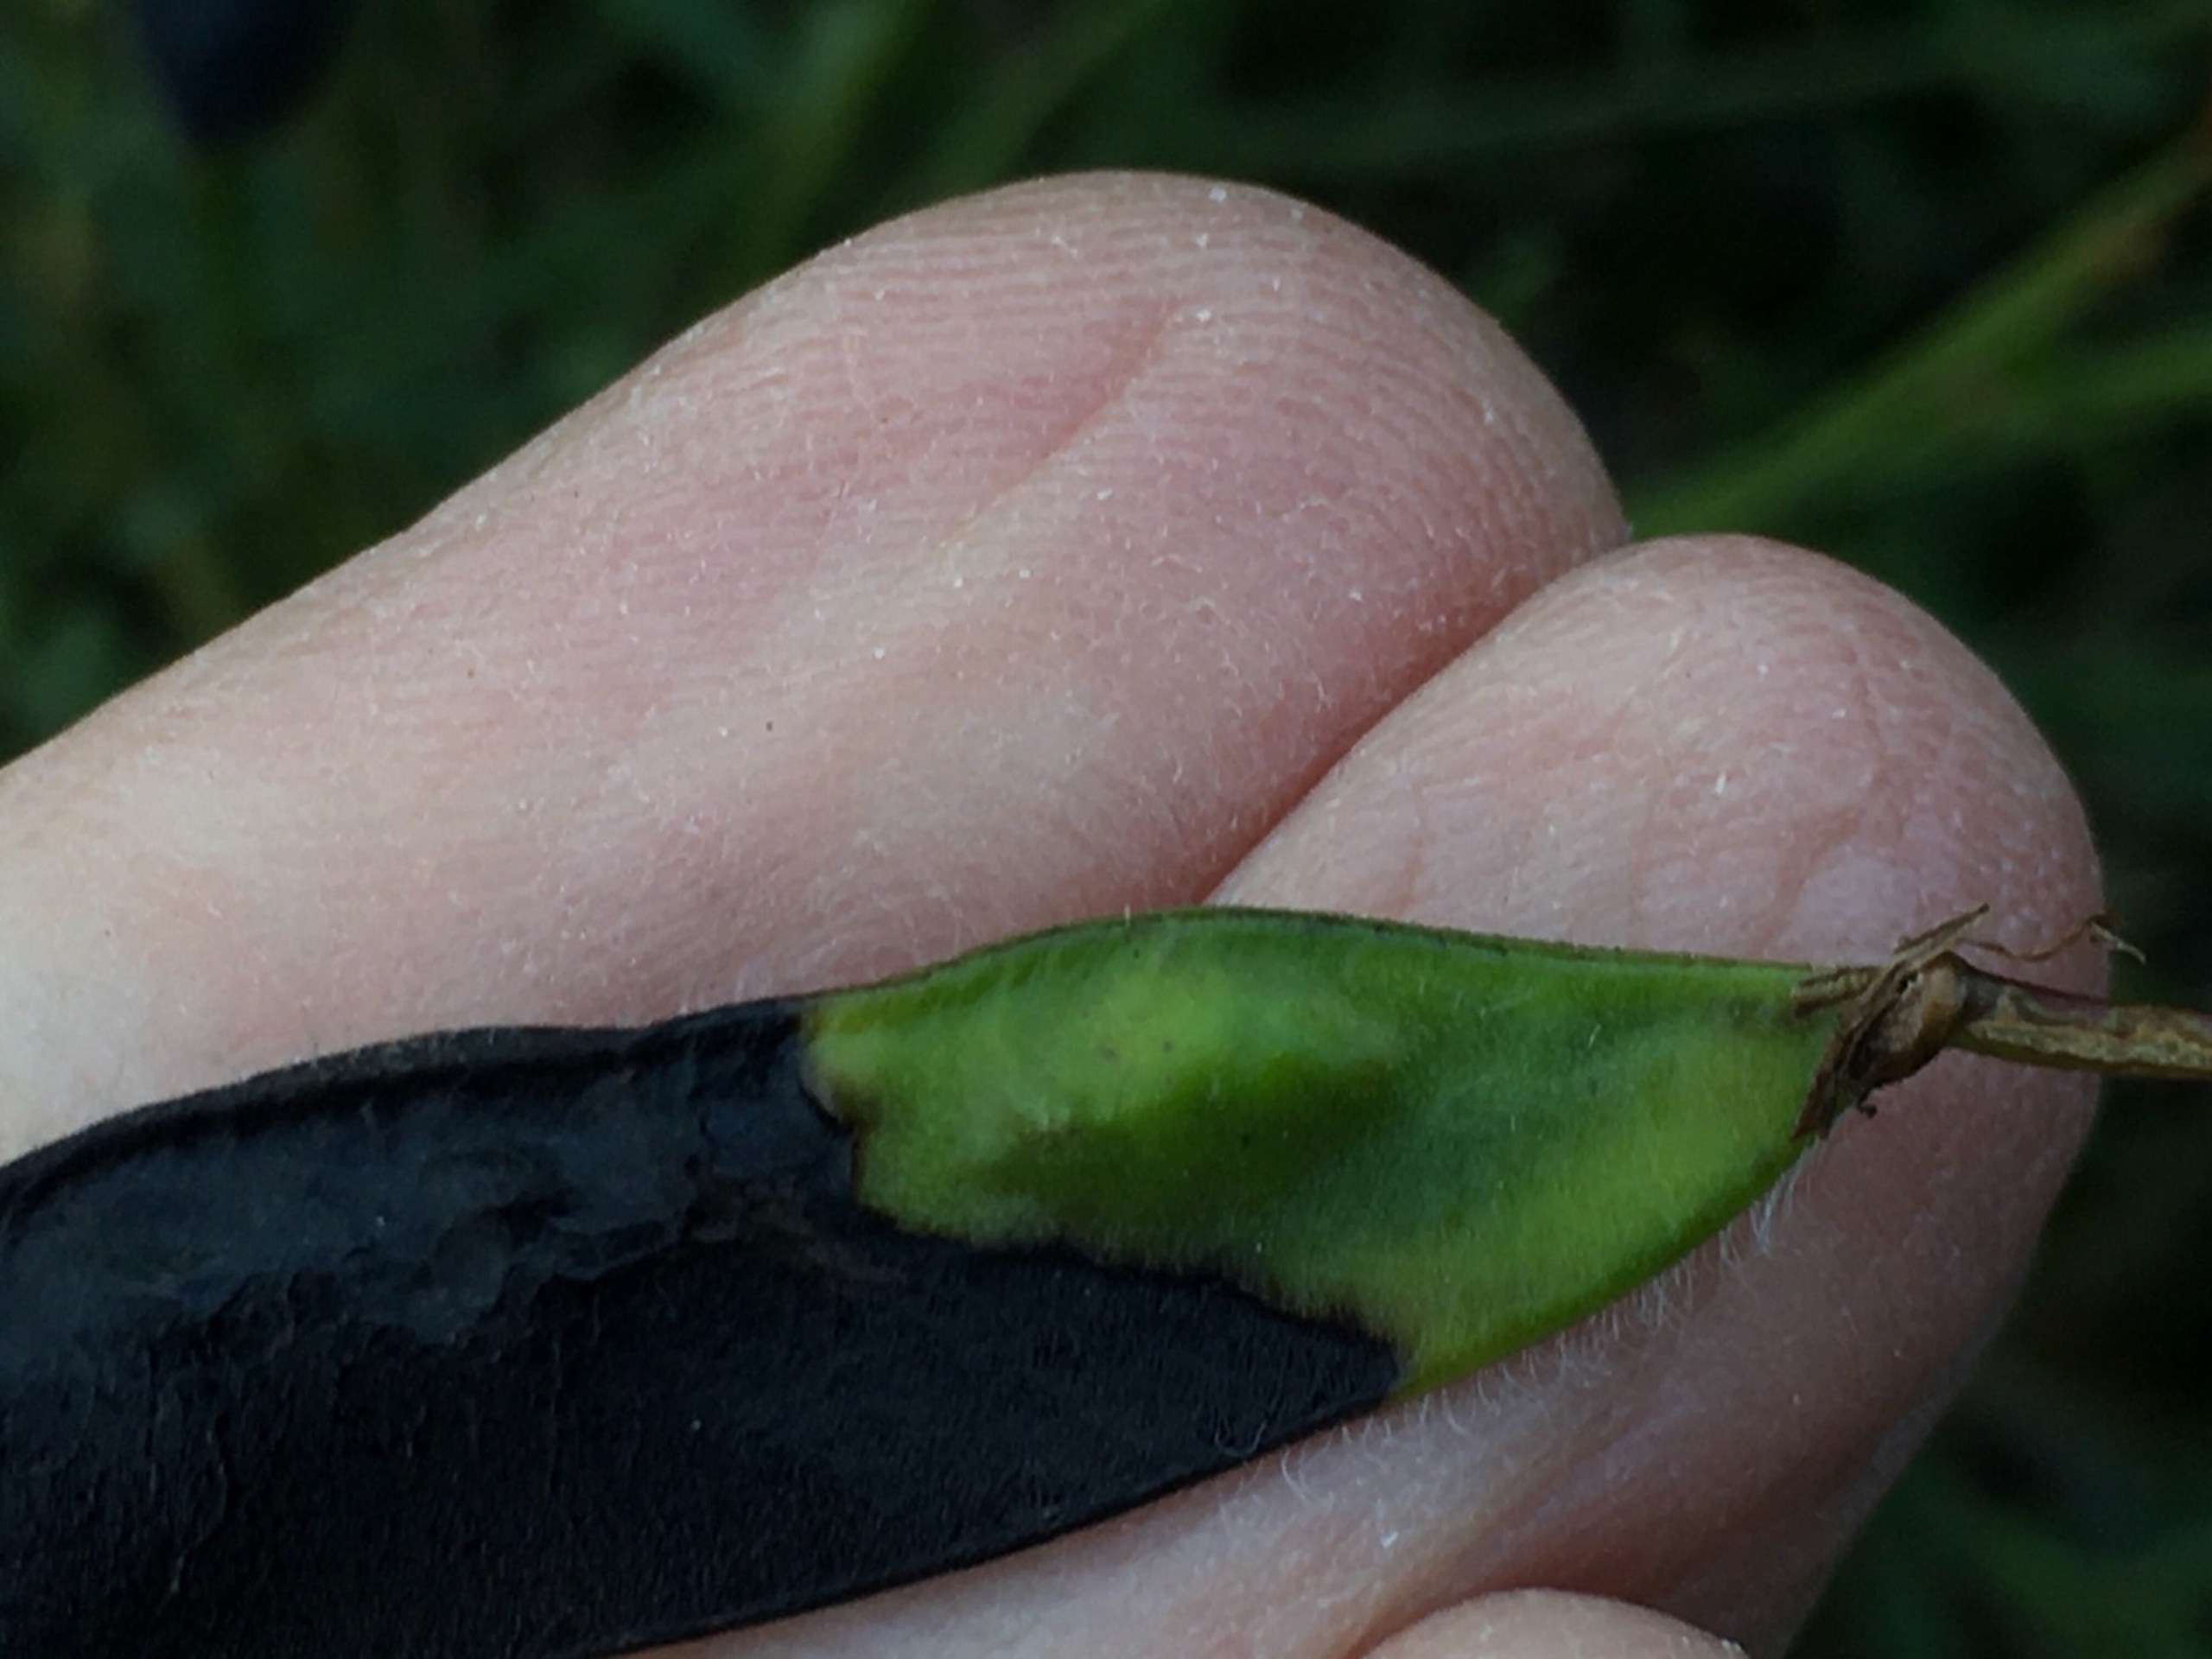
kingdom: Animalia
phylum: Arthropoda
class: Insecta
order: Diptera
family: Cecidomyiidae
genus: Asphondylia
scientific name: Asphondylia sarothamni
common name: Gyvelmycelgalmyg
